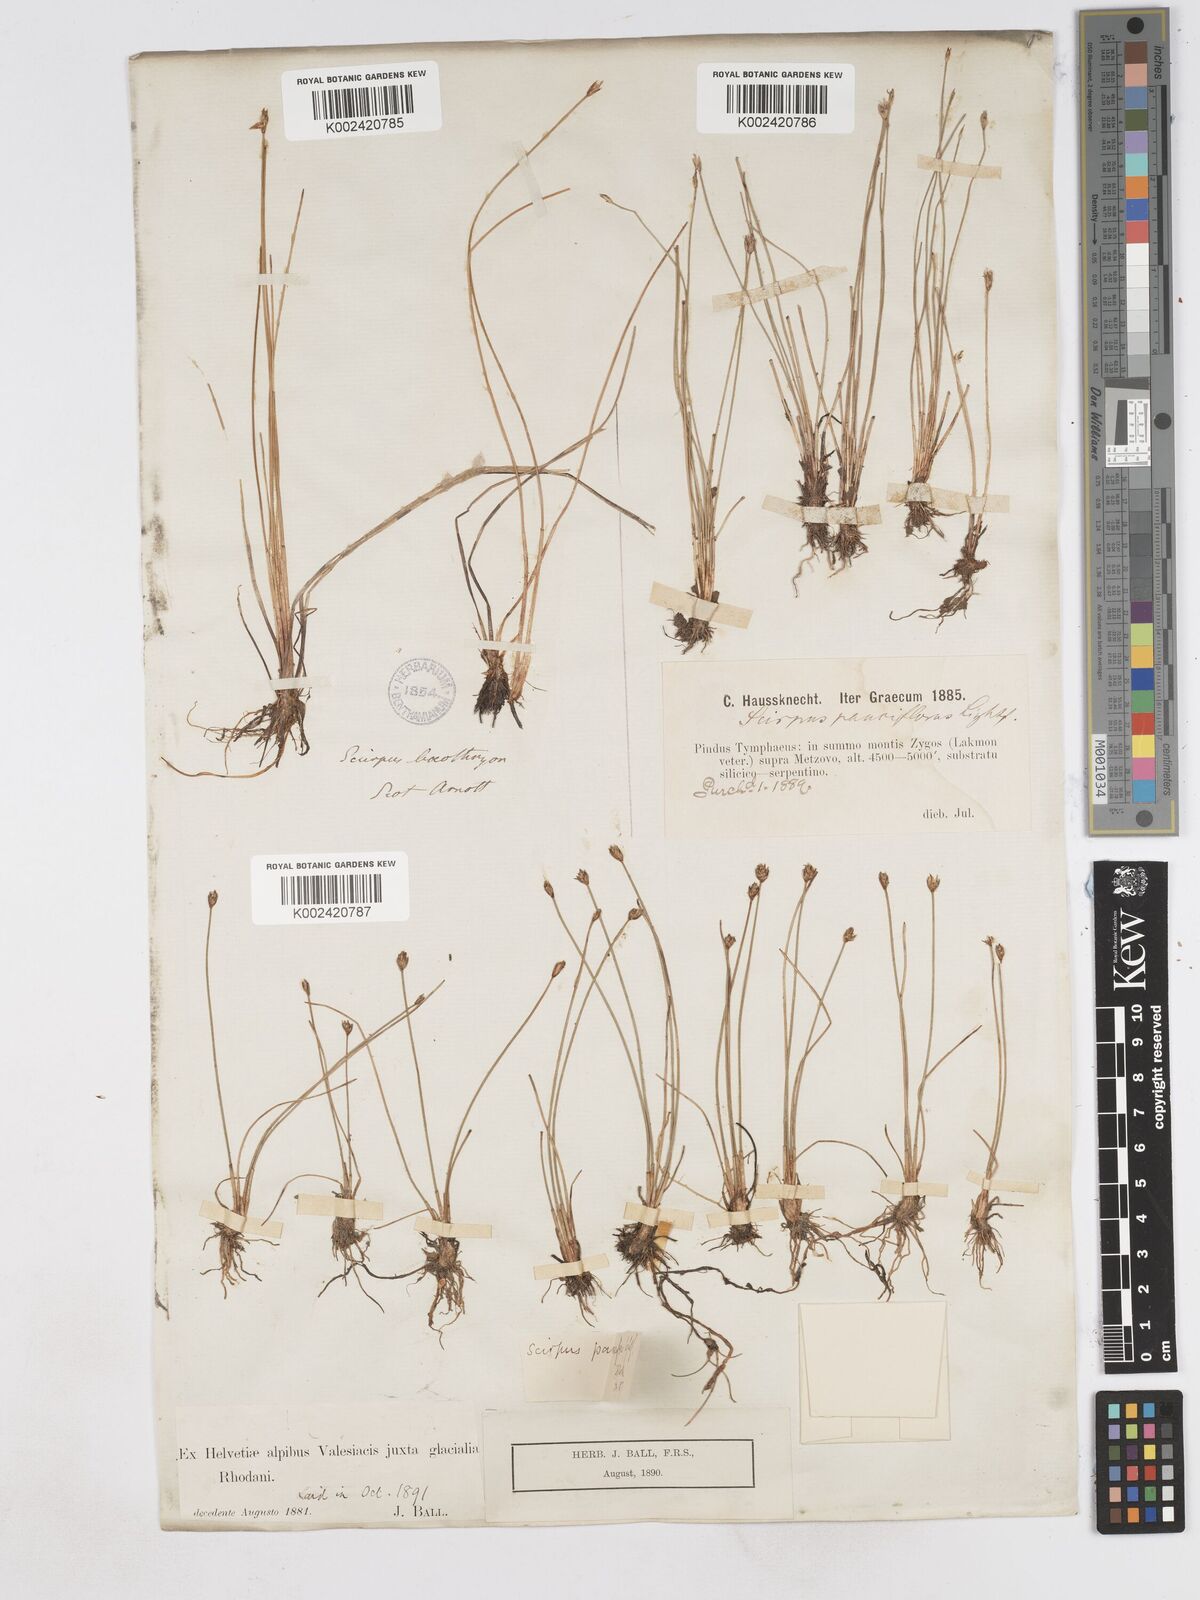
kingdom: Plantae
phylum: Tracheophyta
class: Liliopsida
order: Poales
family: Cyperaceae
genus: Eleocharis
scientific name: Eleocharis quinqueflora
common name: Few-flowered spike-rush
